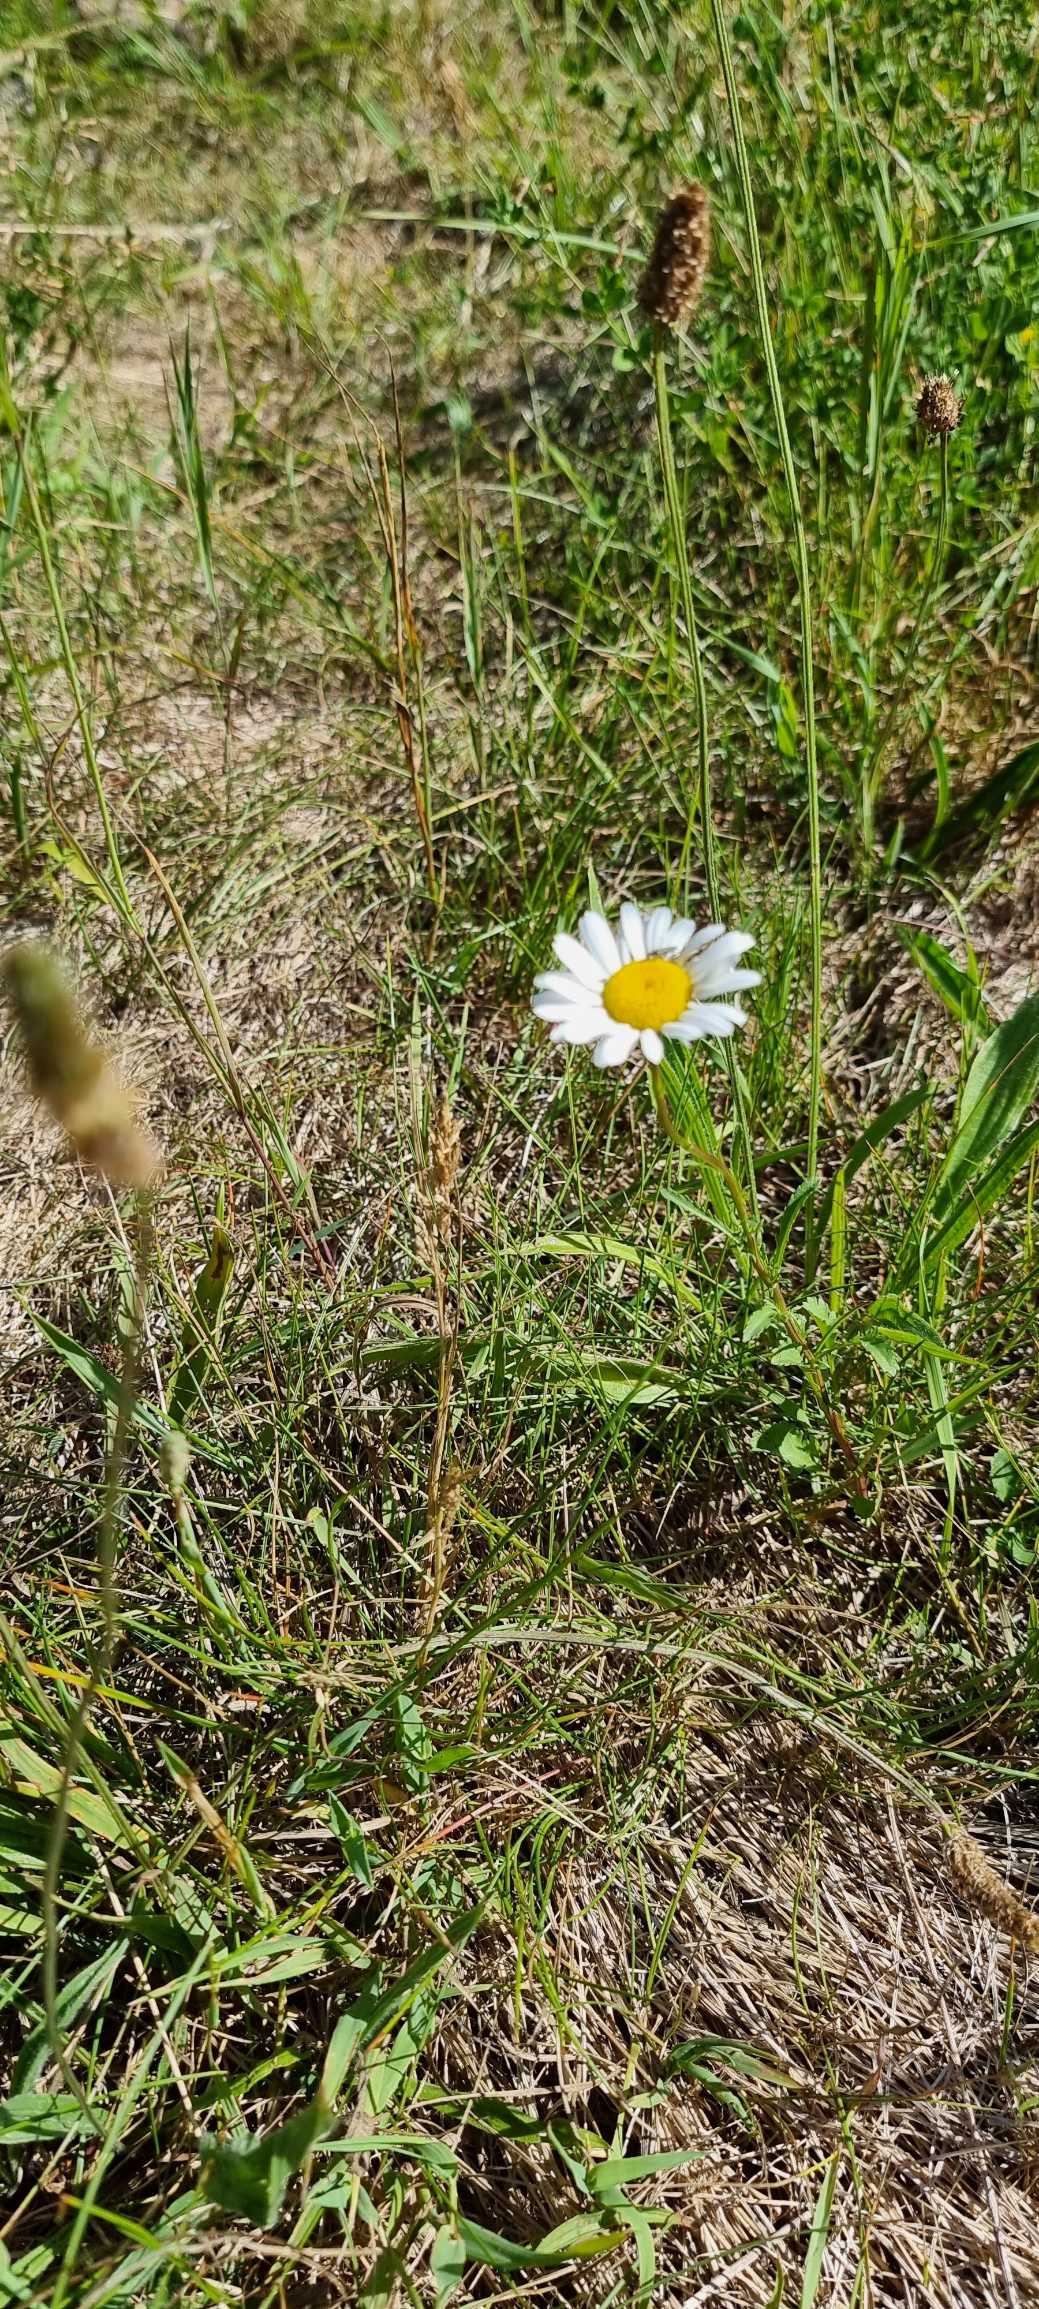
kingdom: Plantae
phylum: Tracheophyta
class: Magnoliopsida
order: Asterales
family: Asteraceae
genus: Leucanthemum
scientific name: Leucanthemum vulgare
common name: Hvid okseøje
